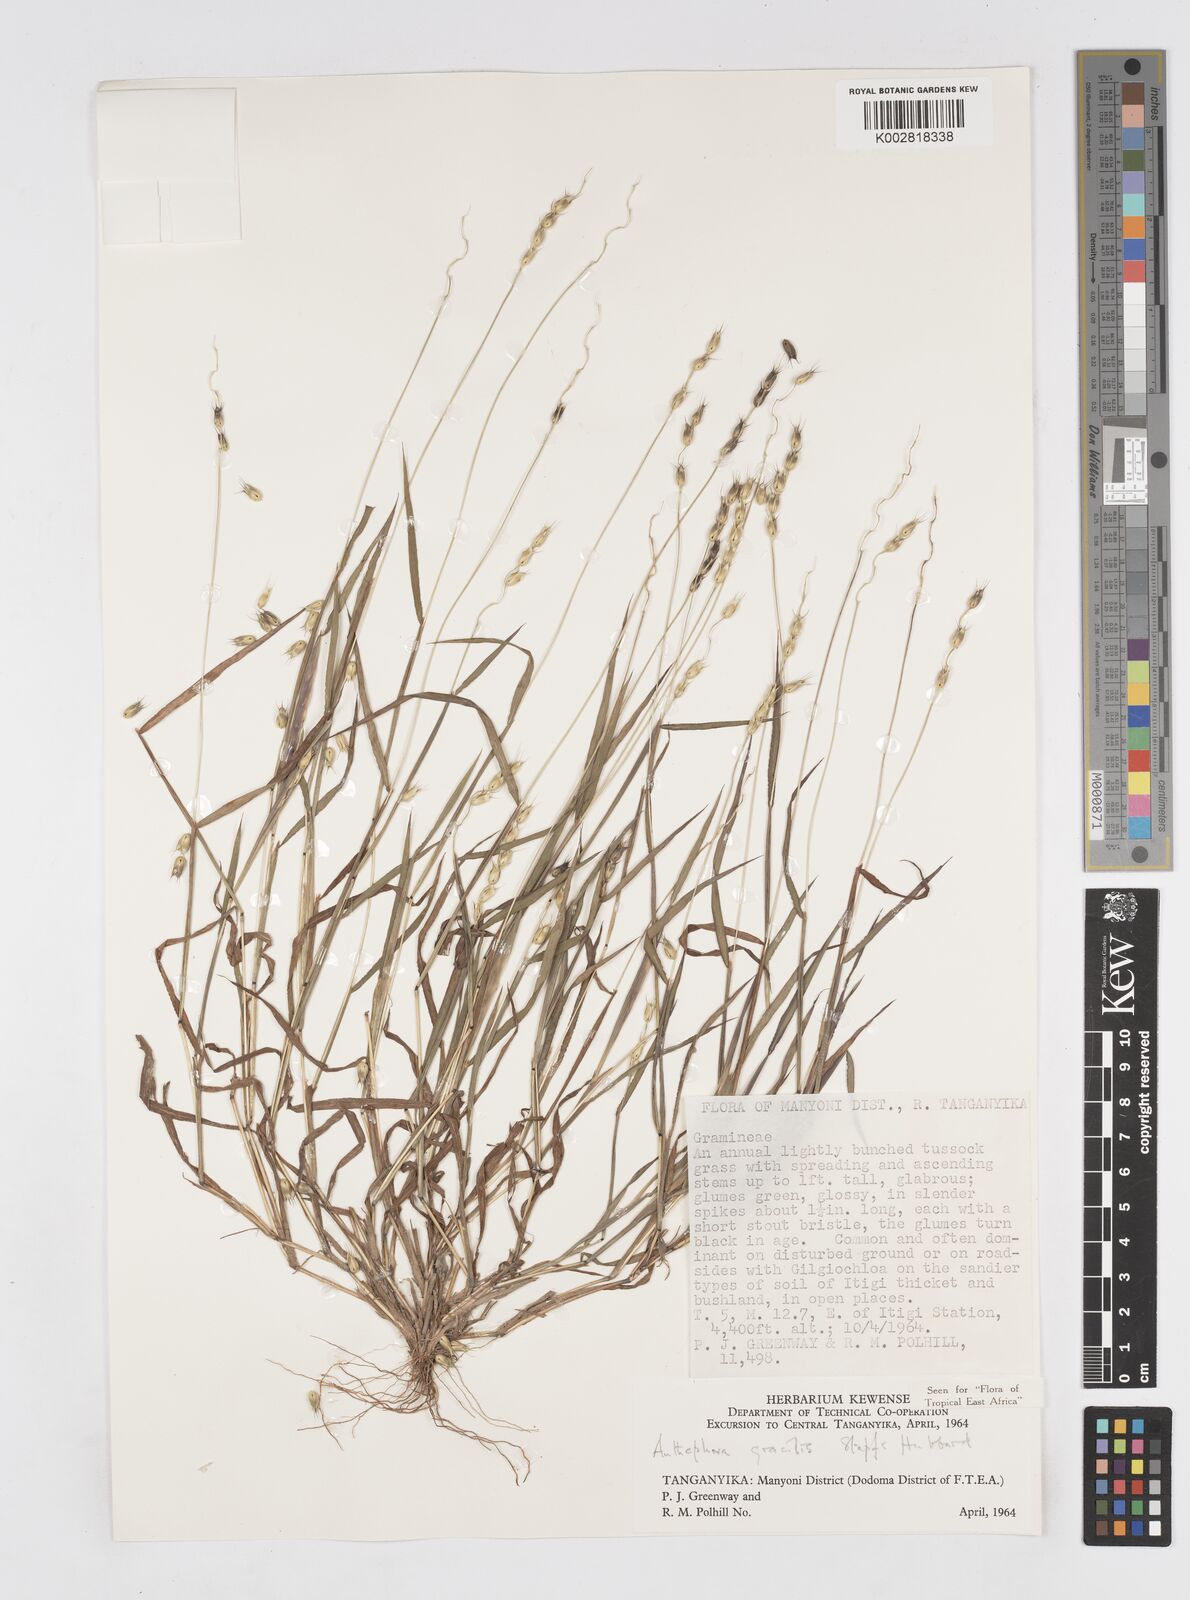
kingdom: Plantae
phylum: Tracheophyta
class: Liliopsida
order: Poales
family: Poaceae
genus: Anthephora
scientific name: Anthephora truncata
